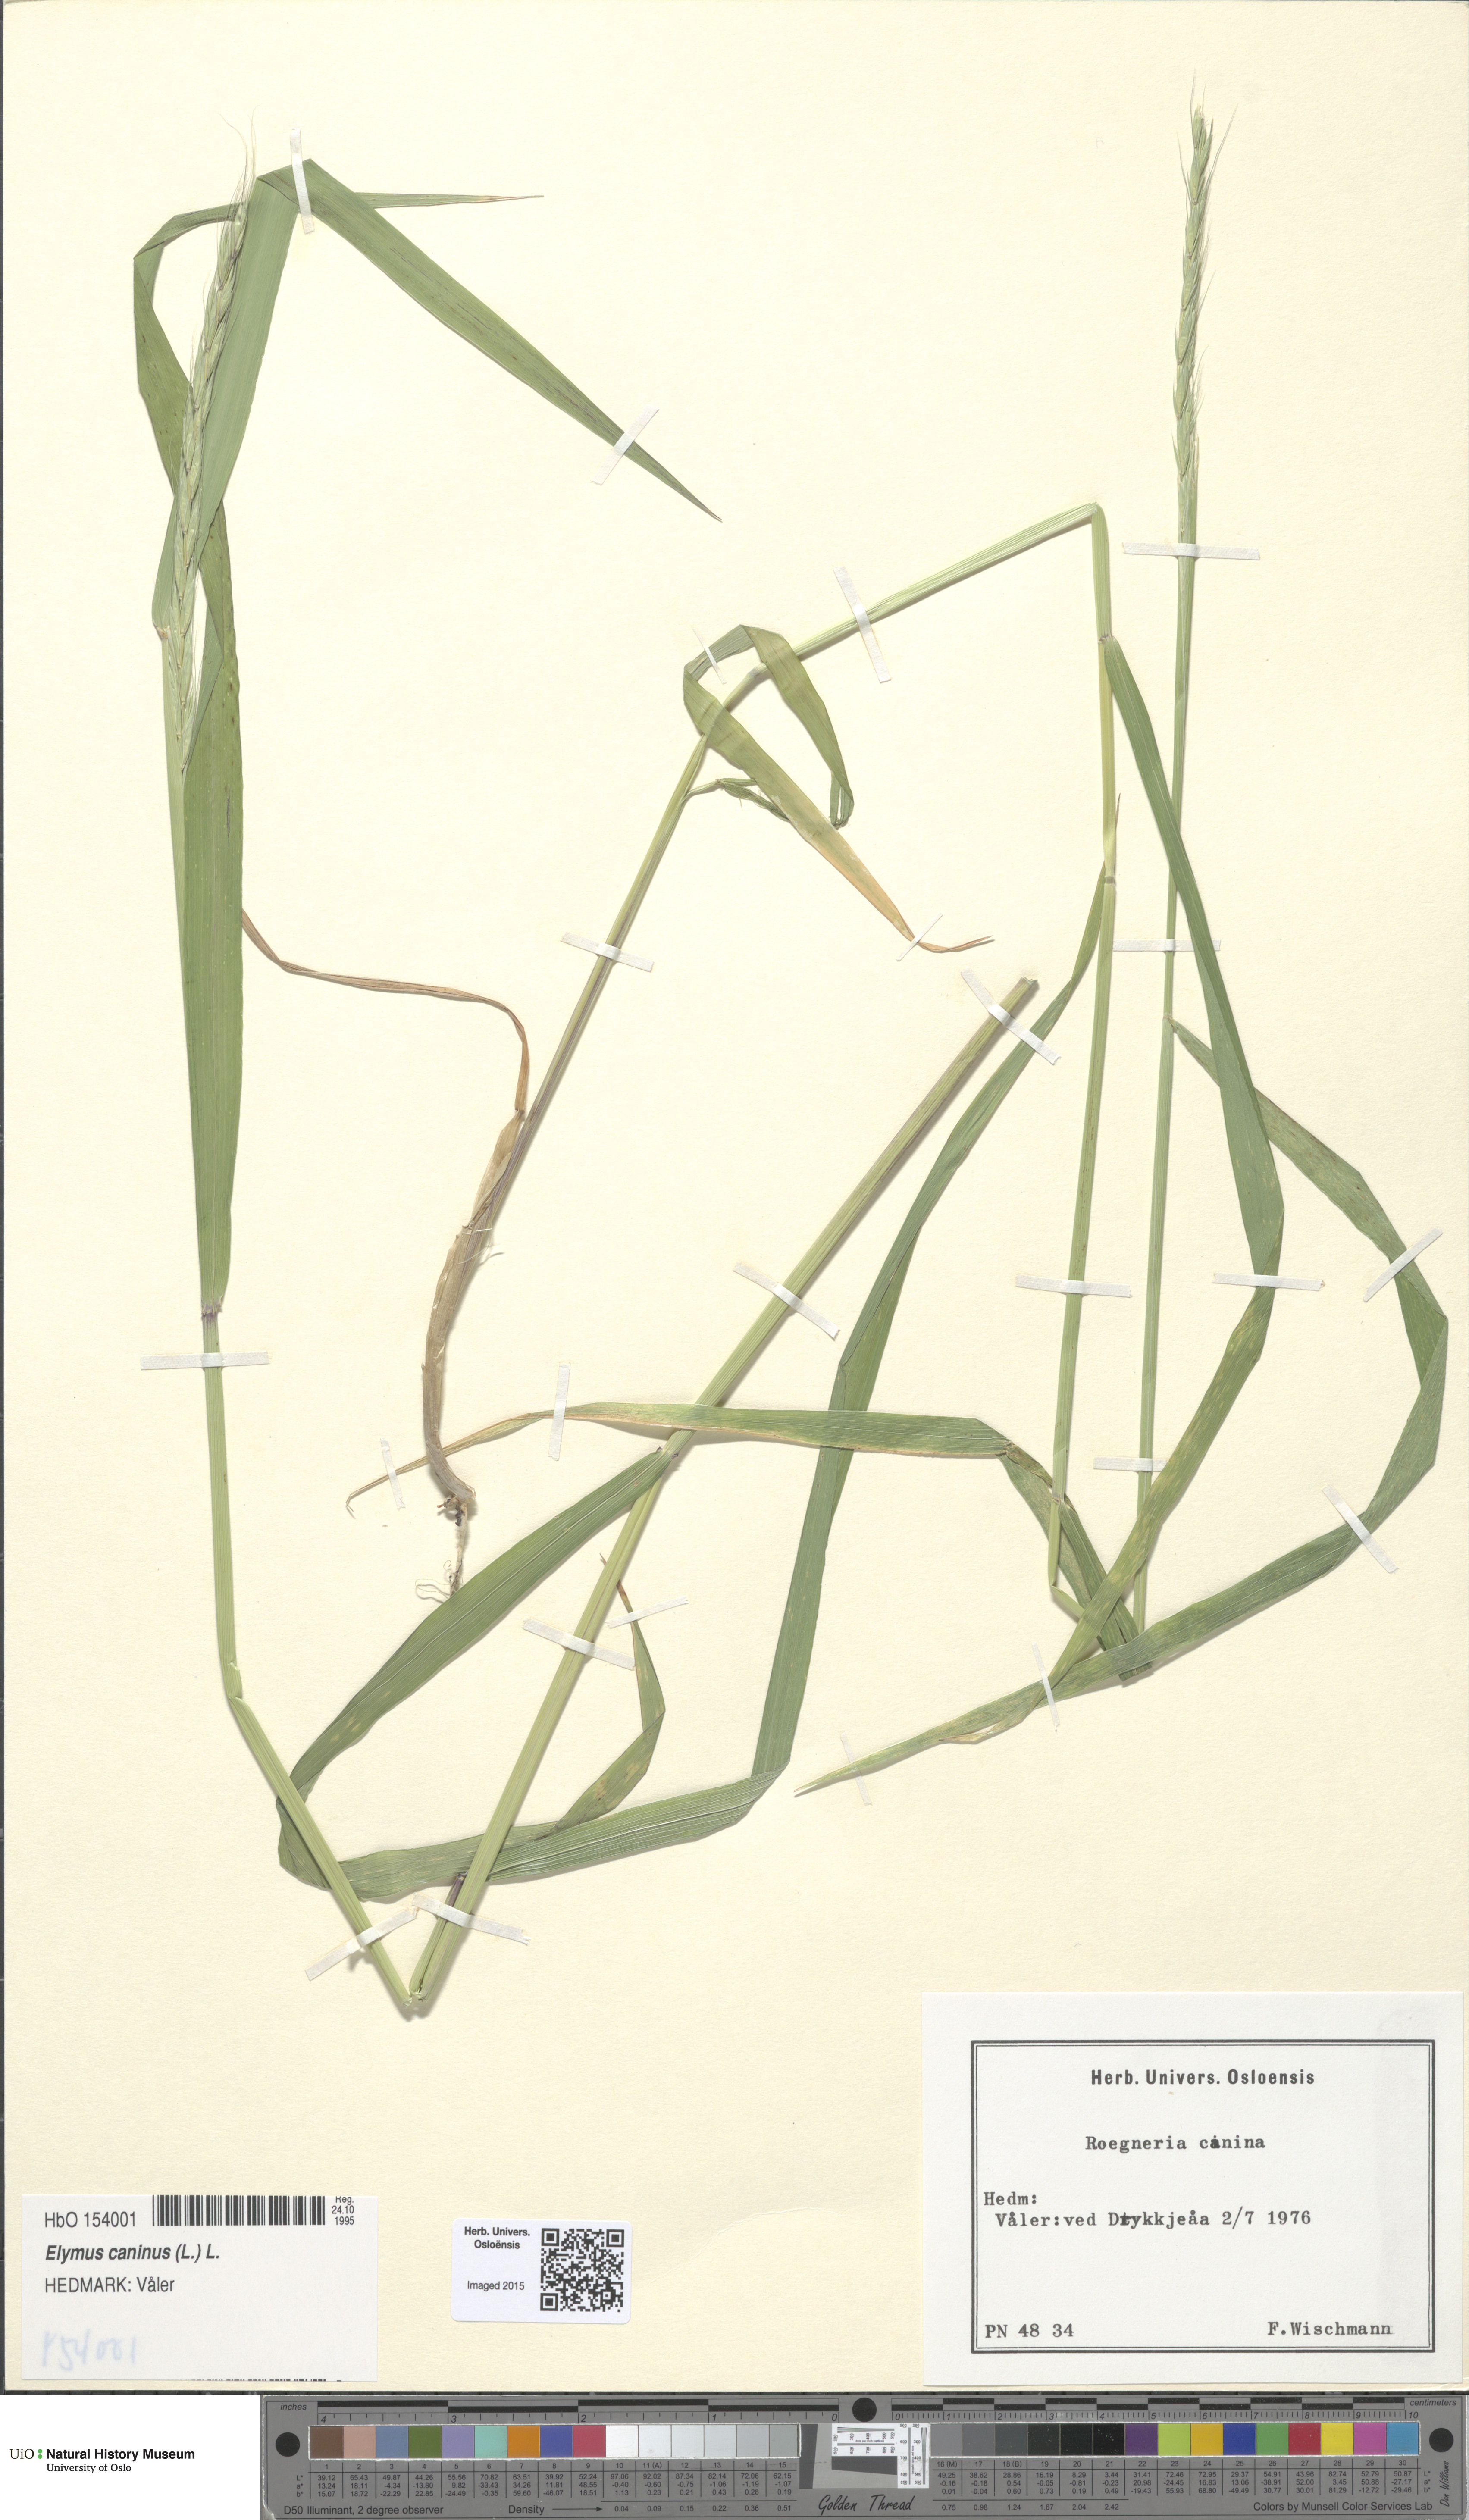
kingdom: Plantae
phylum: Tracheophyta
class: Liliopsida
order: Poales
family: Poaceae
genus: Elymus
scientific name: Elymus caninus
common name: Bearded couch
